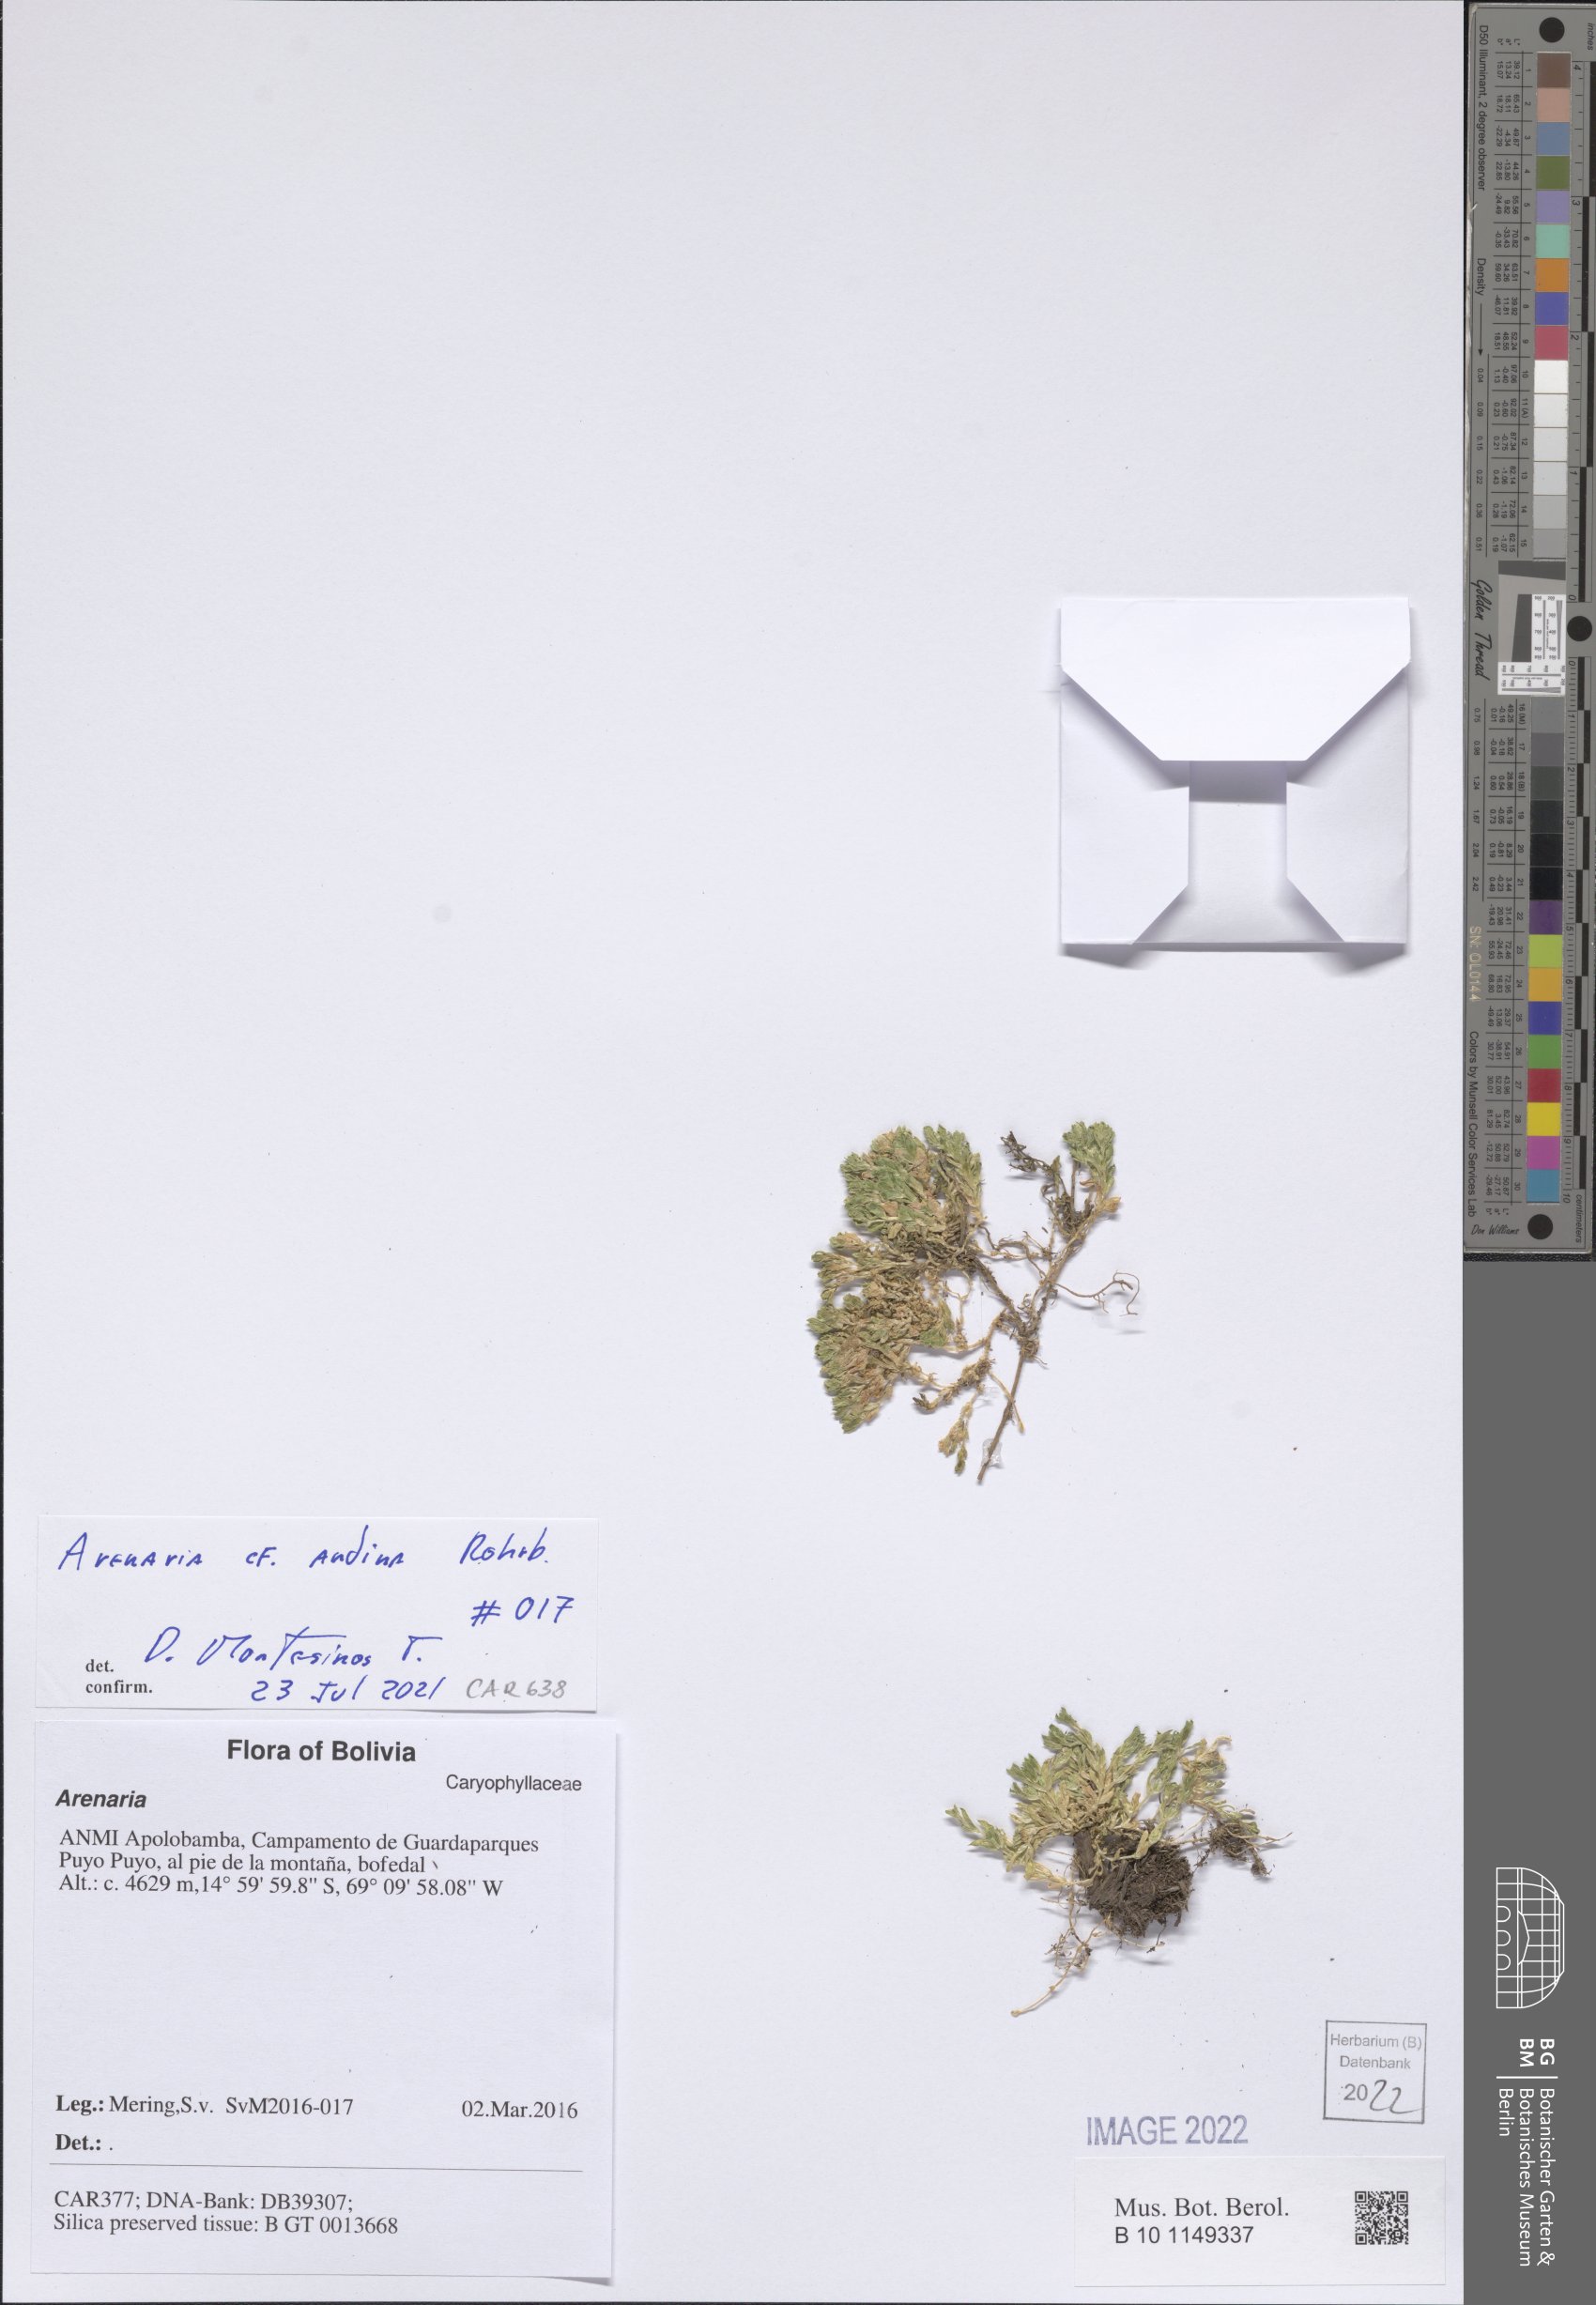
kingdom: Plantae
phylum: Tracheophyta
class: Magnoliopsida
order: Caryophyllales
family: Caryophyllaceae
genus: Arenaria
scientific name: Arenaria andina
